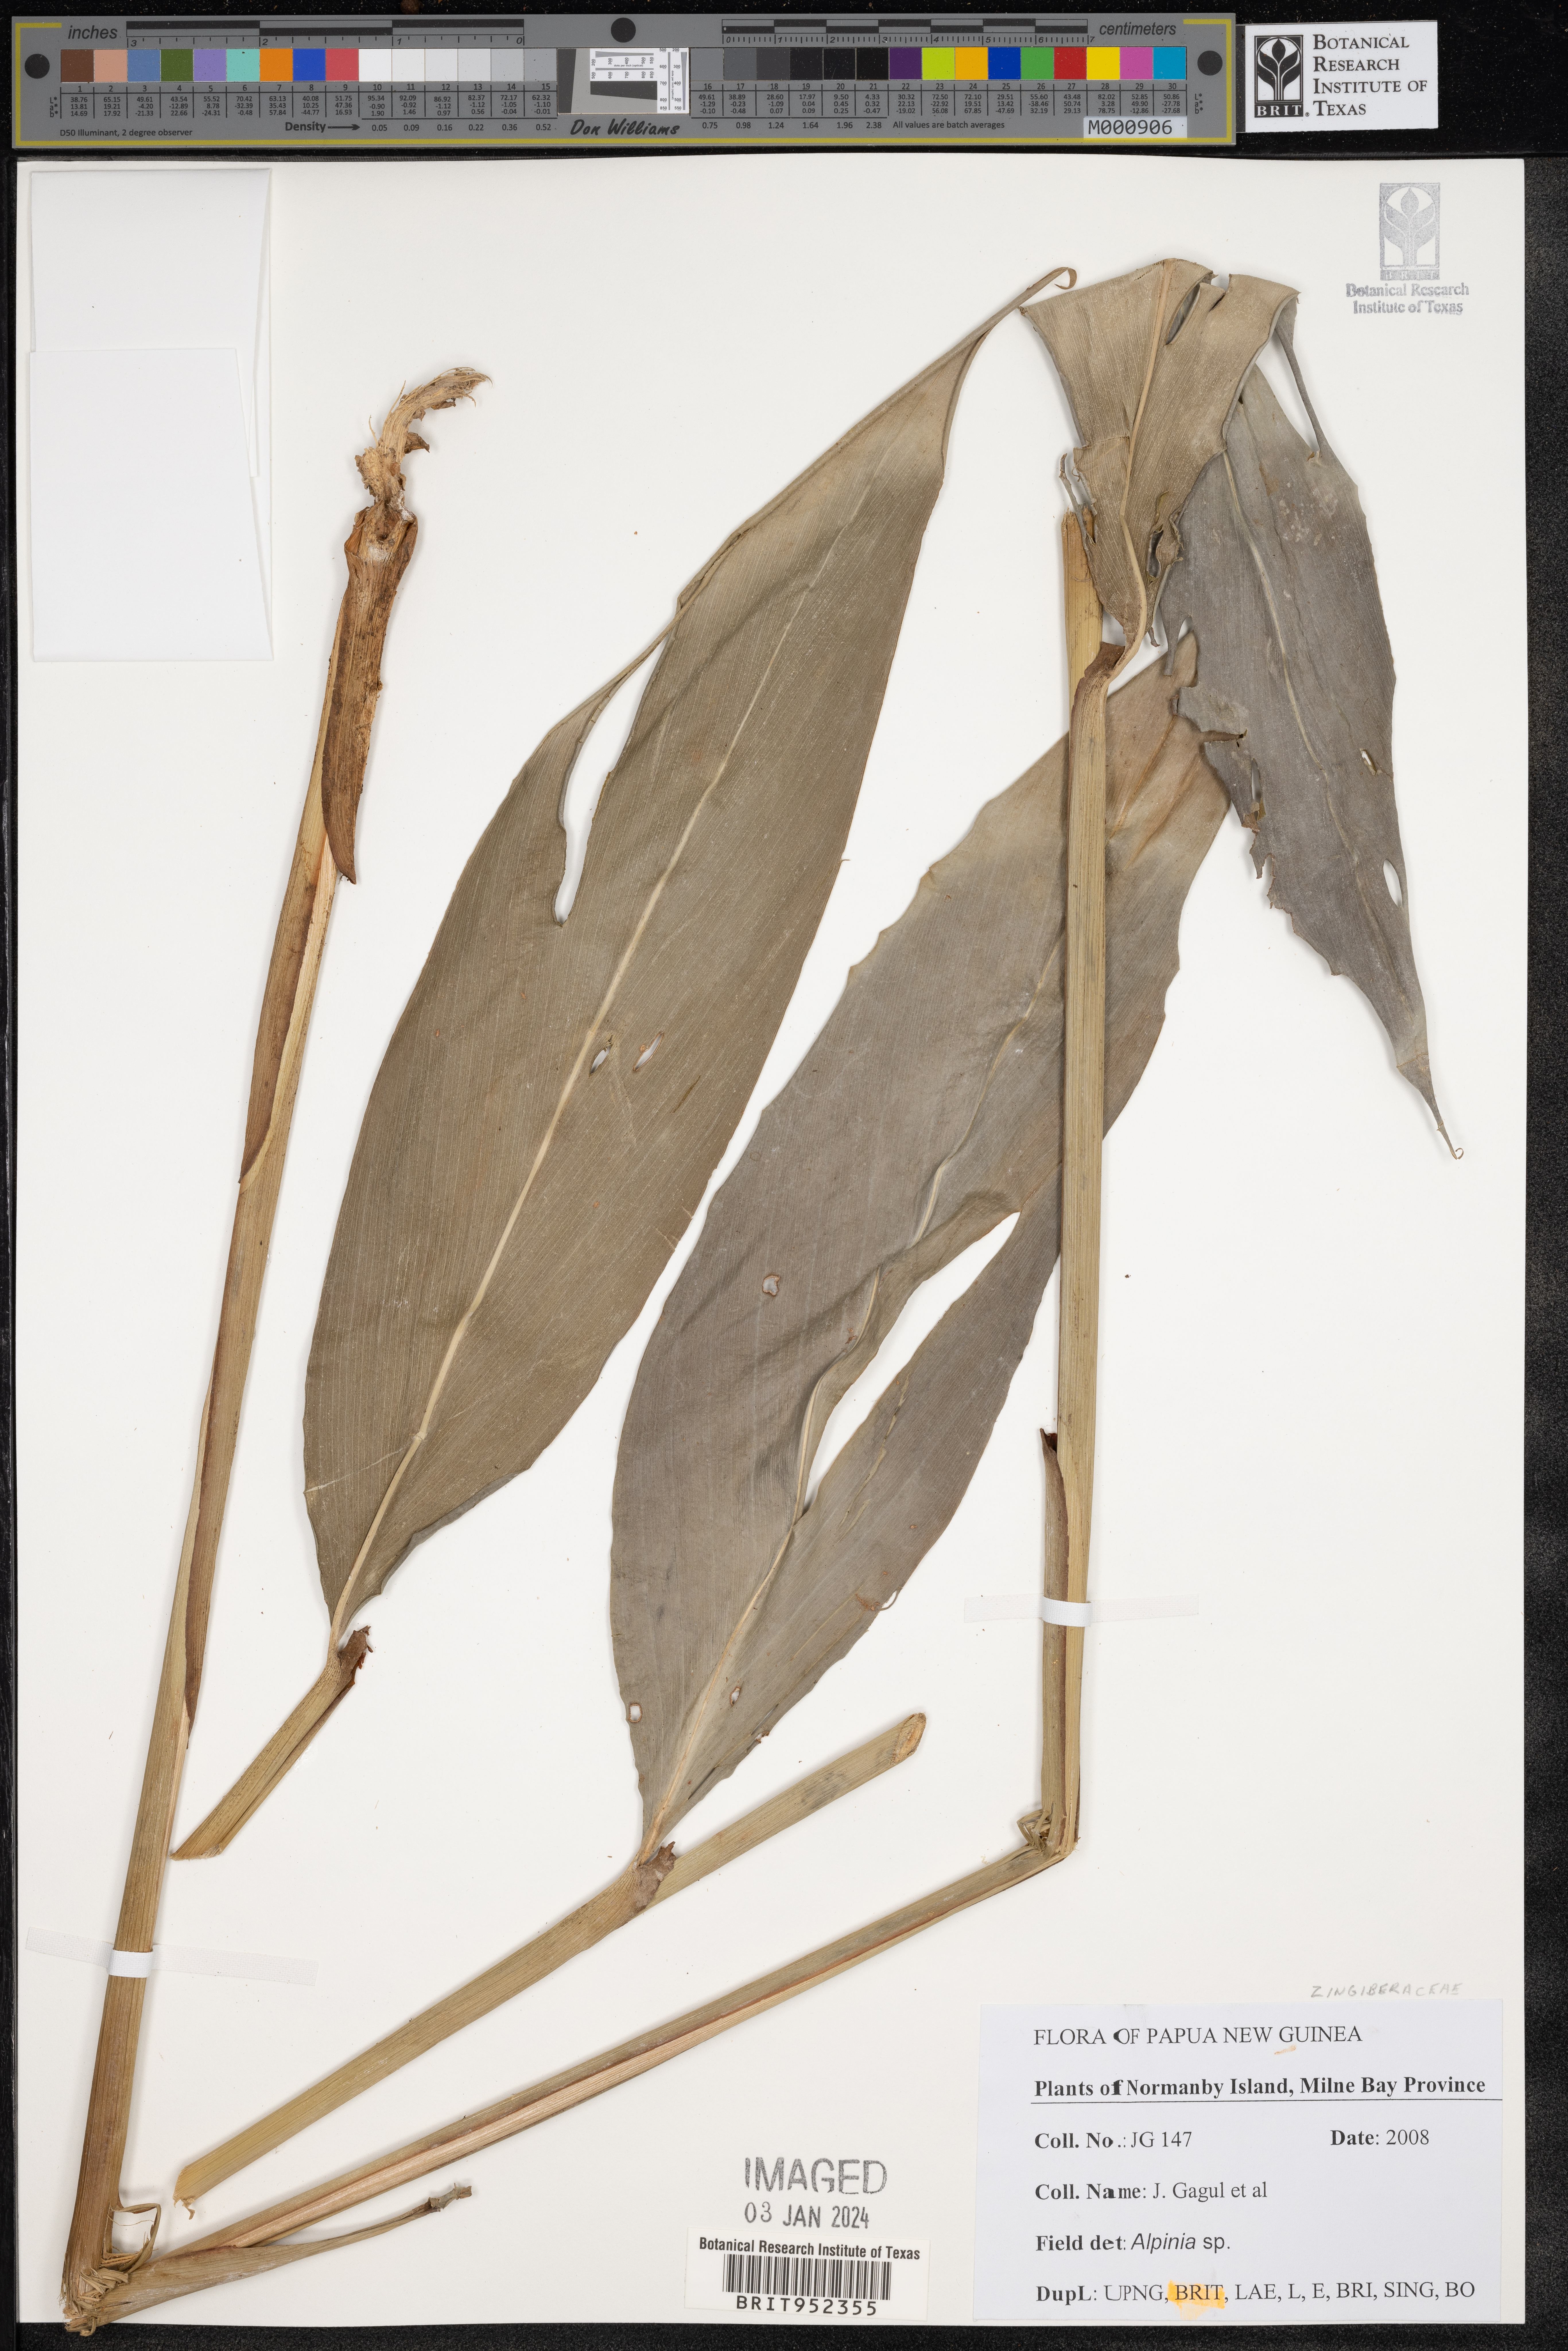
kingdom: Plantae
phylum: Tracheophyta
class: Liliopsida
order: Zingiberales
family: Zingiberaceae
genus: Alpinia
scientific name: Alpinia
